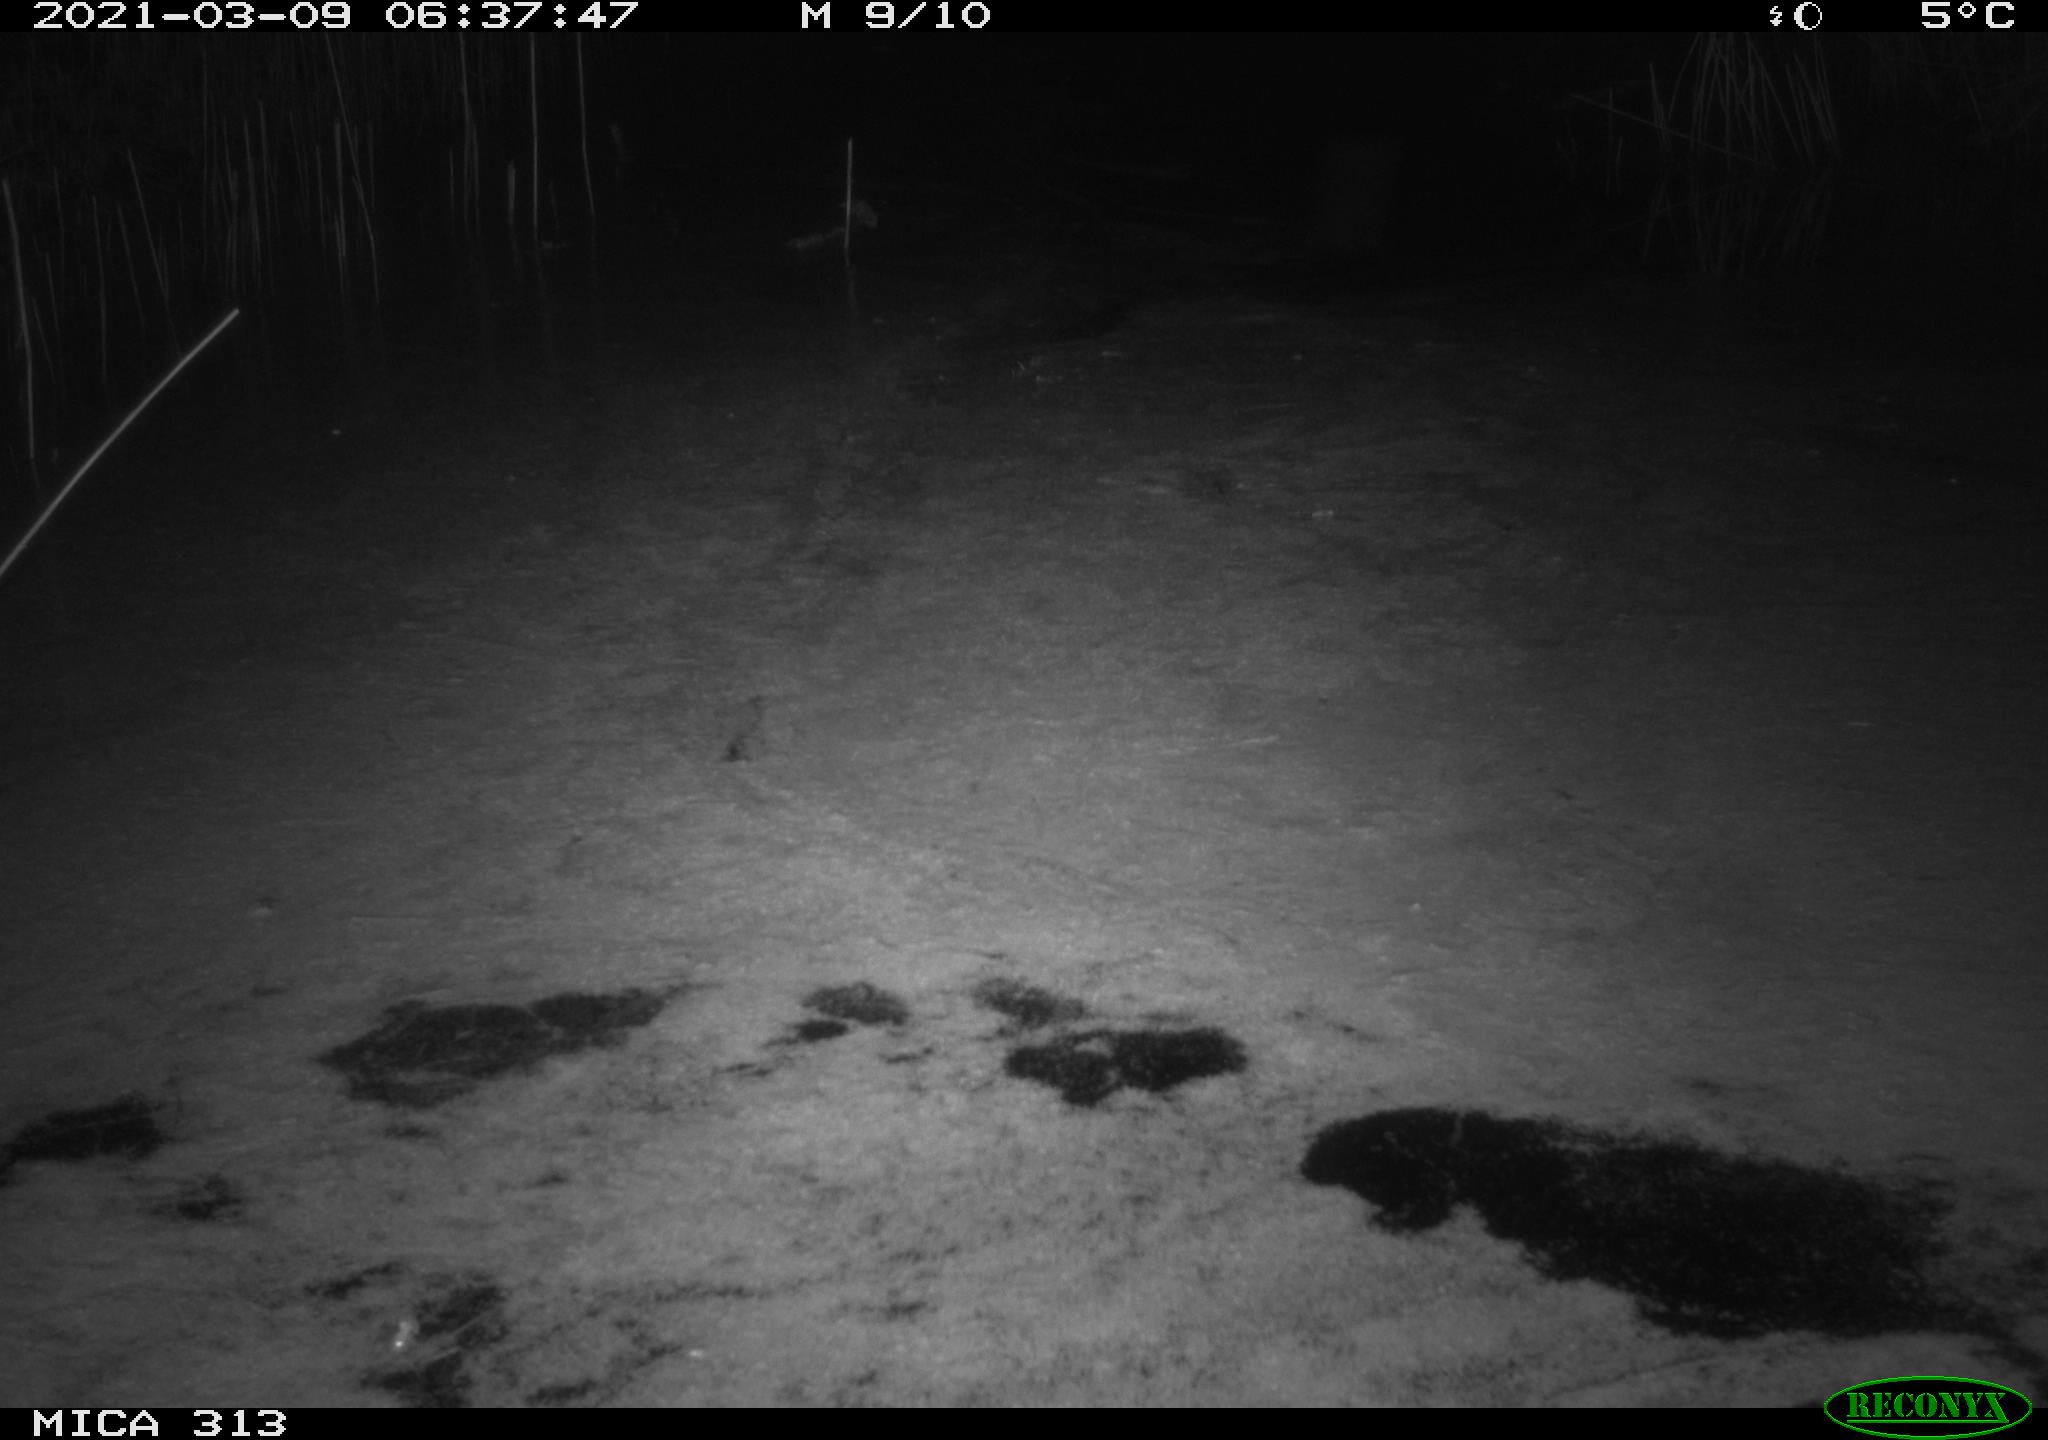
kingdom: Animalia
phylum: Chordata
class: Aves
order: Anseriformes
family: Anatidae
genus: Anas
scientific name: Anas platyrhynchos
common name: Mallard
